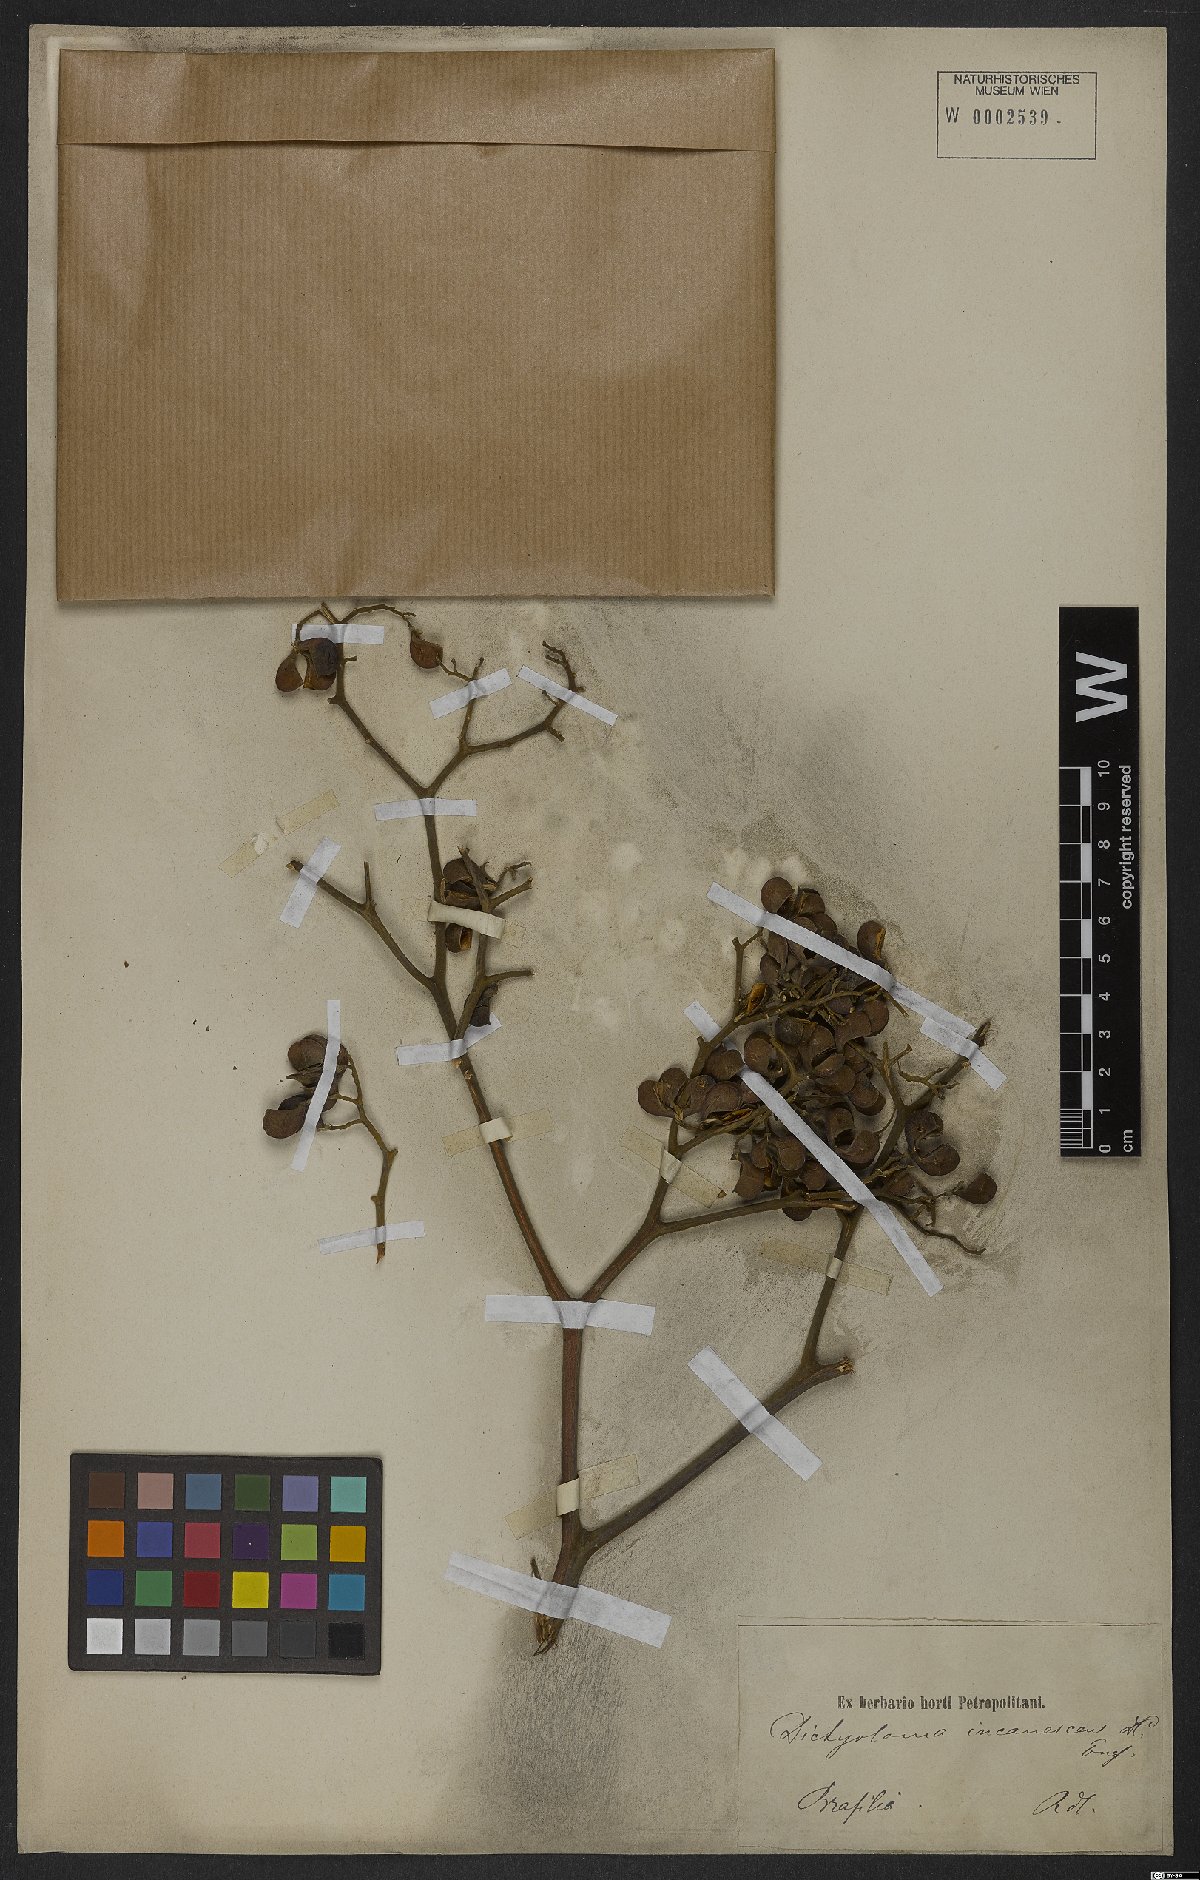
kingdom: Plantae
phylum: Tracheophyta
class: Magnoliopsida
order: Sapindales
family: Rutaceae
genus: Dictyoloma
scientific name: Dictyoloma vandellianum
